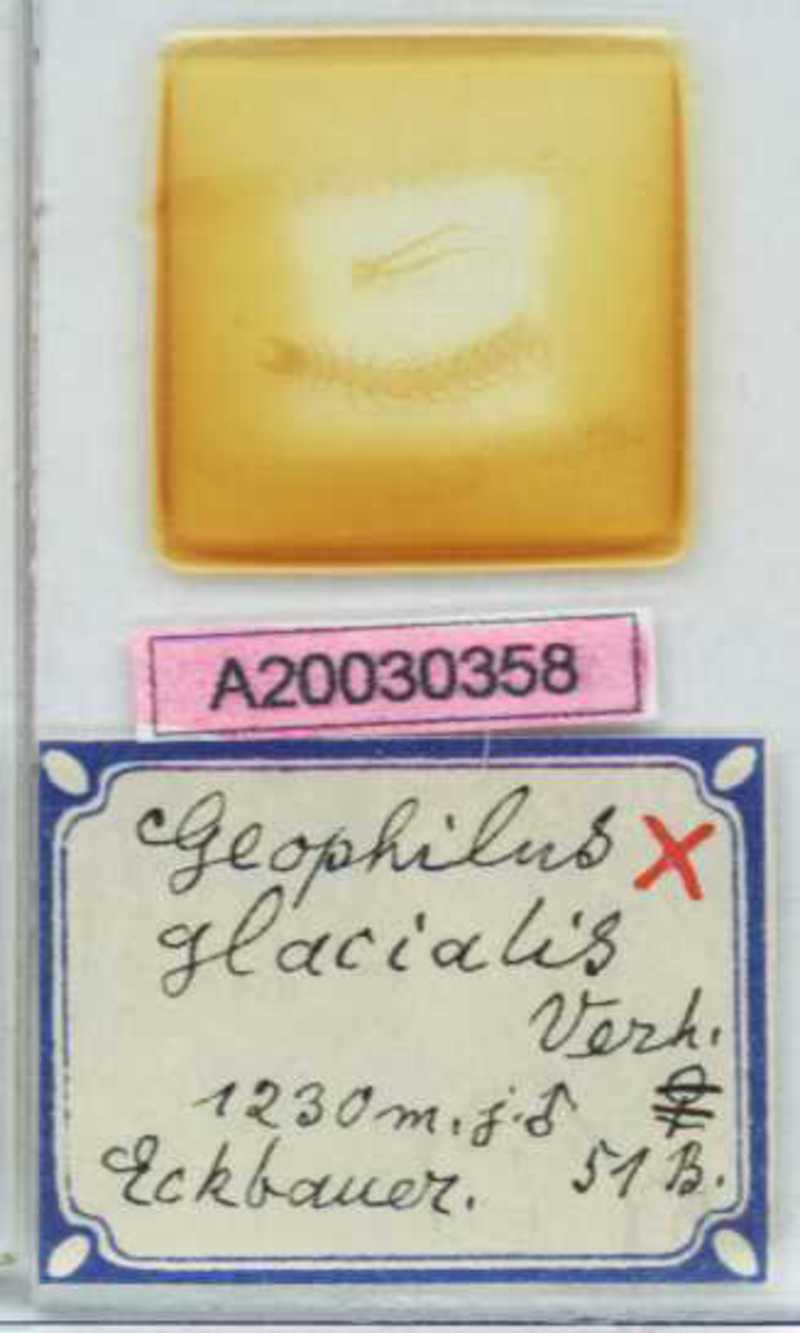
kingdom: Animalia
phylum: Arthropoda
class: Chilopoda
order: Geophilomorpha
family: Geophilidae
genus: Geophilus
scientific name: Geophilus insculptus
